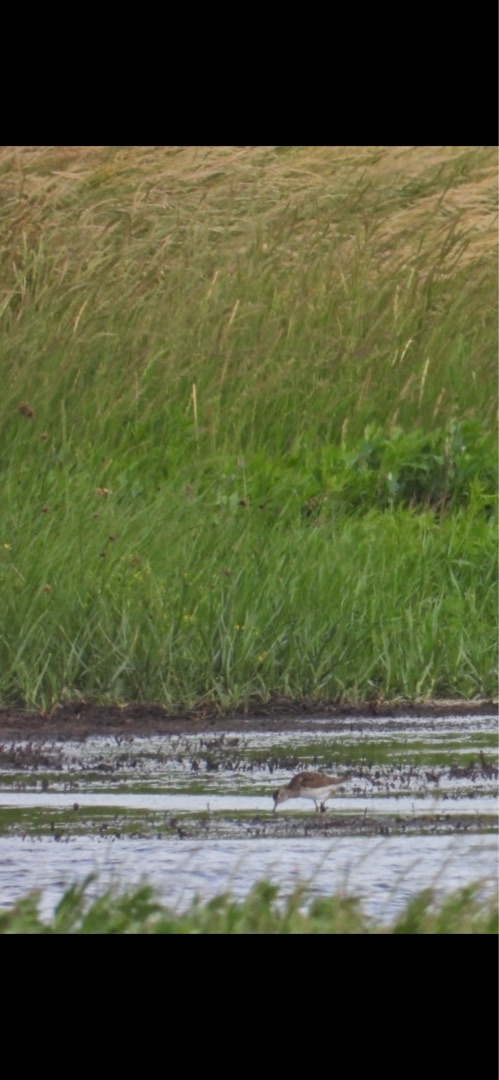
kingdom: Animalia
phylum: Chordata
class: Aves
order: Charadriiformes
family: Scolopacidae
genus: Tringa
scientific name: Tringa glareola
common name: Tinksmed
